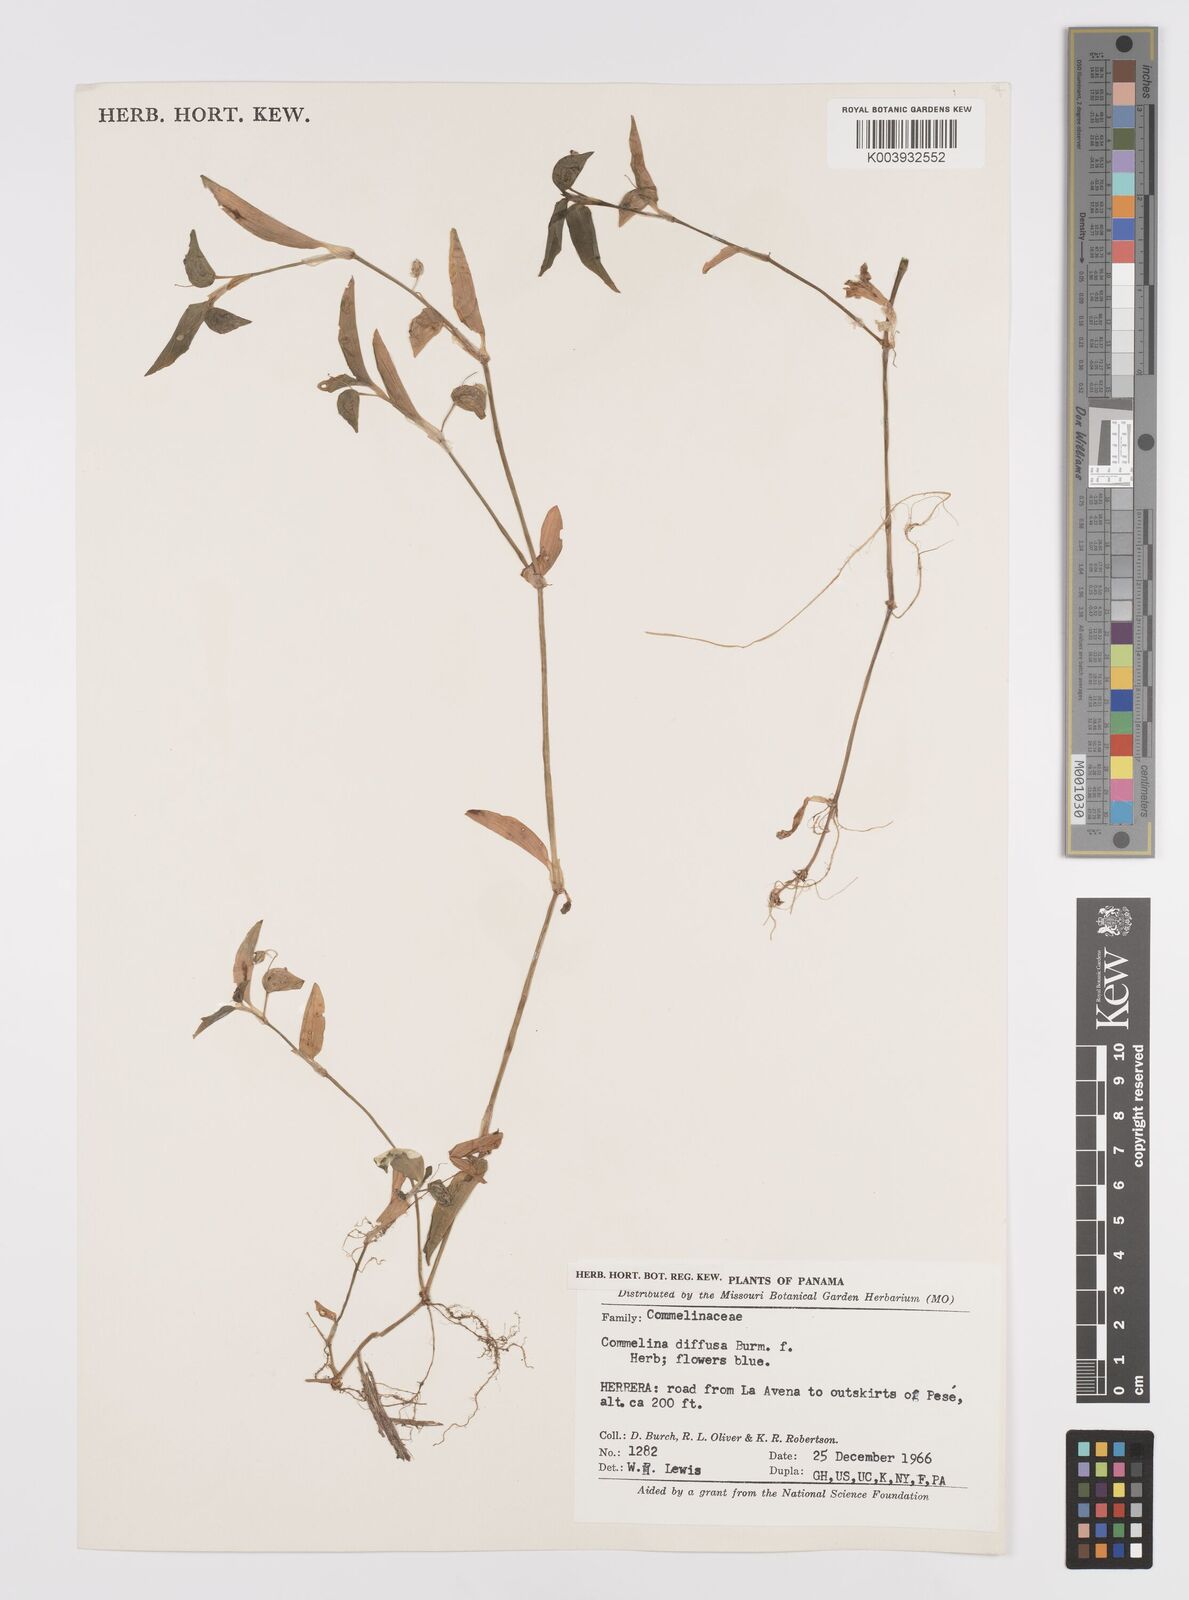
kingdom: Plantae
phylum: Tracheophyta
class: Liliopsida
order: Commelinales
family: Commelinaceae
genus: Commelina
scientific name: Commelina diffusa
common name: Climbing dayflower
